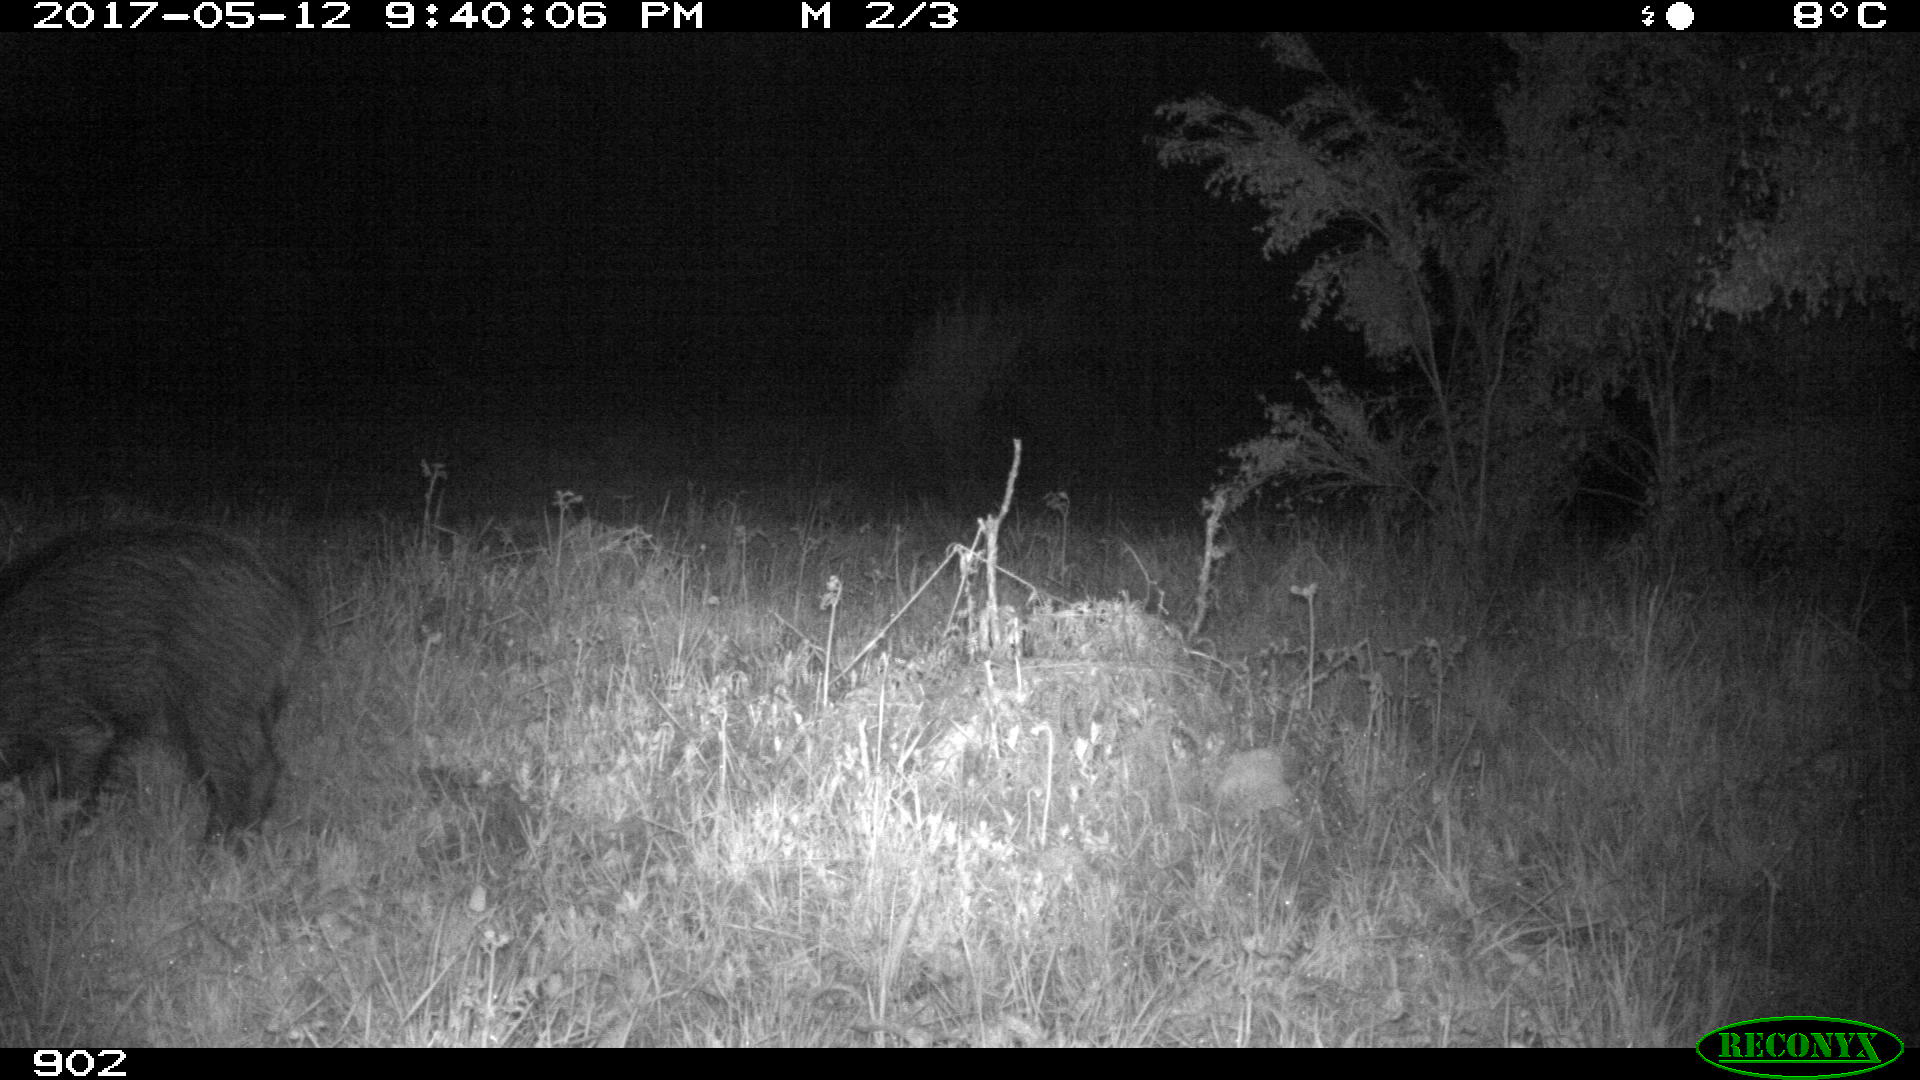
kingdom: Animalia
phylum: Chordata
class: Mammalia
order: Artiodactyla
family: Suidae
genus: Sus
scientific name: Sus scrofa
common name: Wild boar
